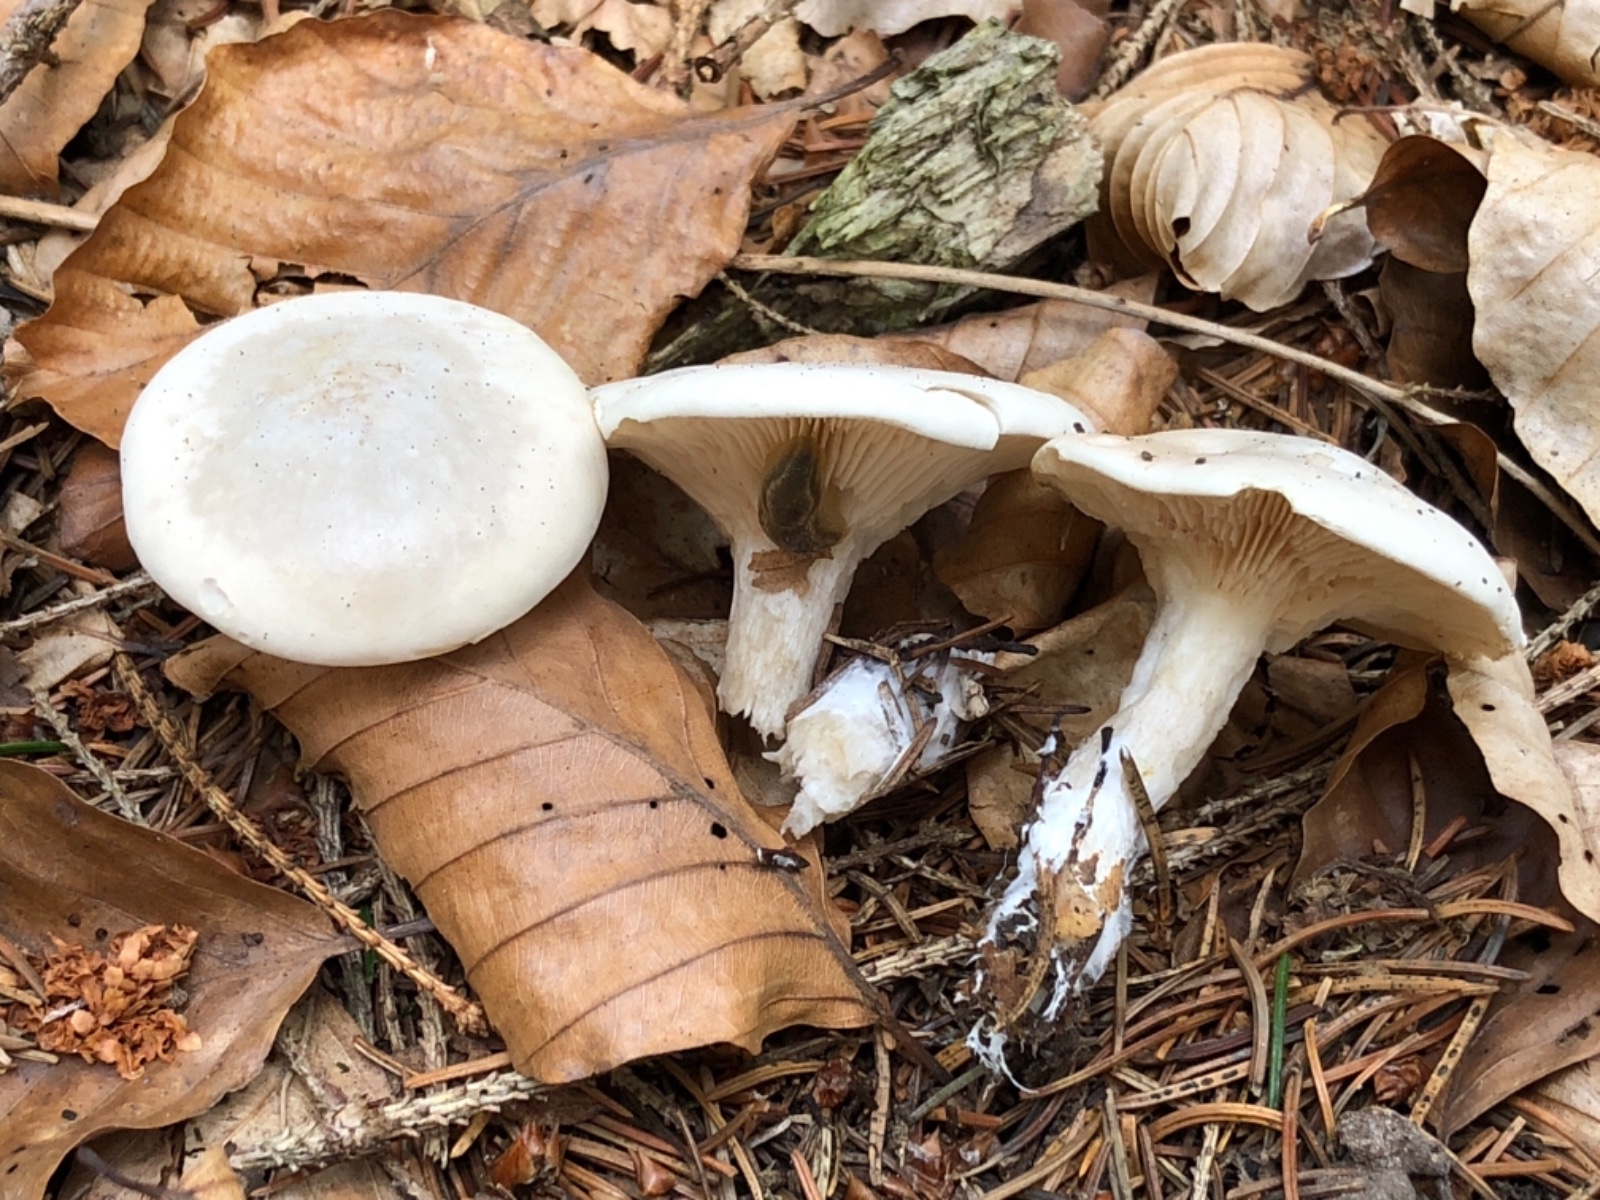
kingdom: Fungi
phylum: Basidiomycota
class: Agaricomycetes
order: Agaricales
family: Entolomataceae
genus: Clitopilus
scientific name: Clitopilus prunulus
